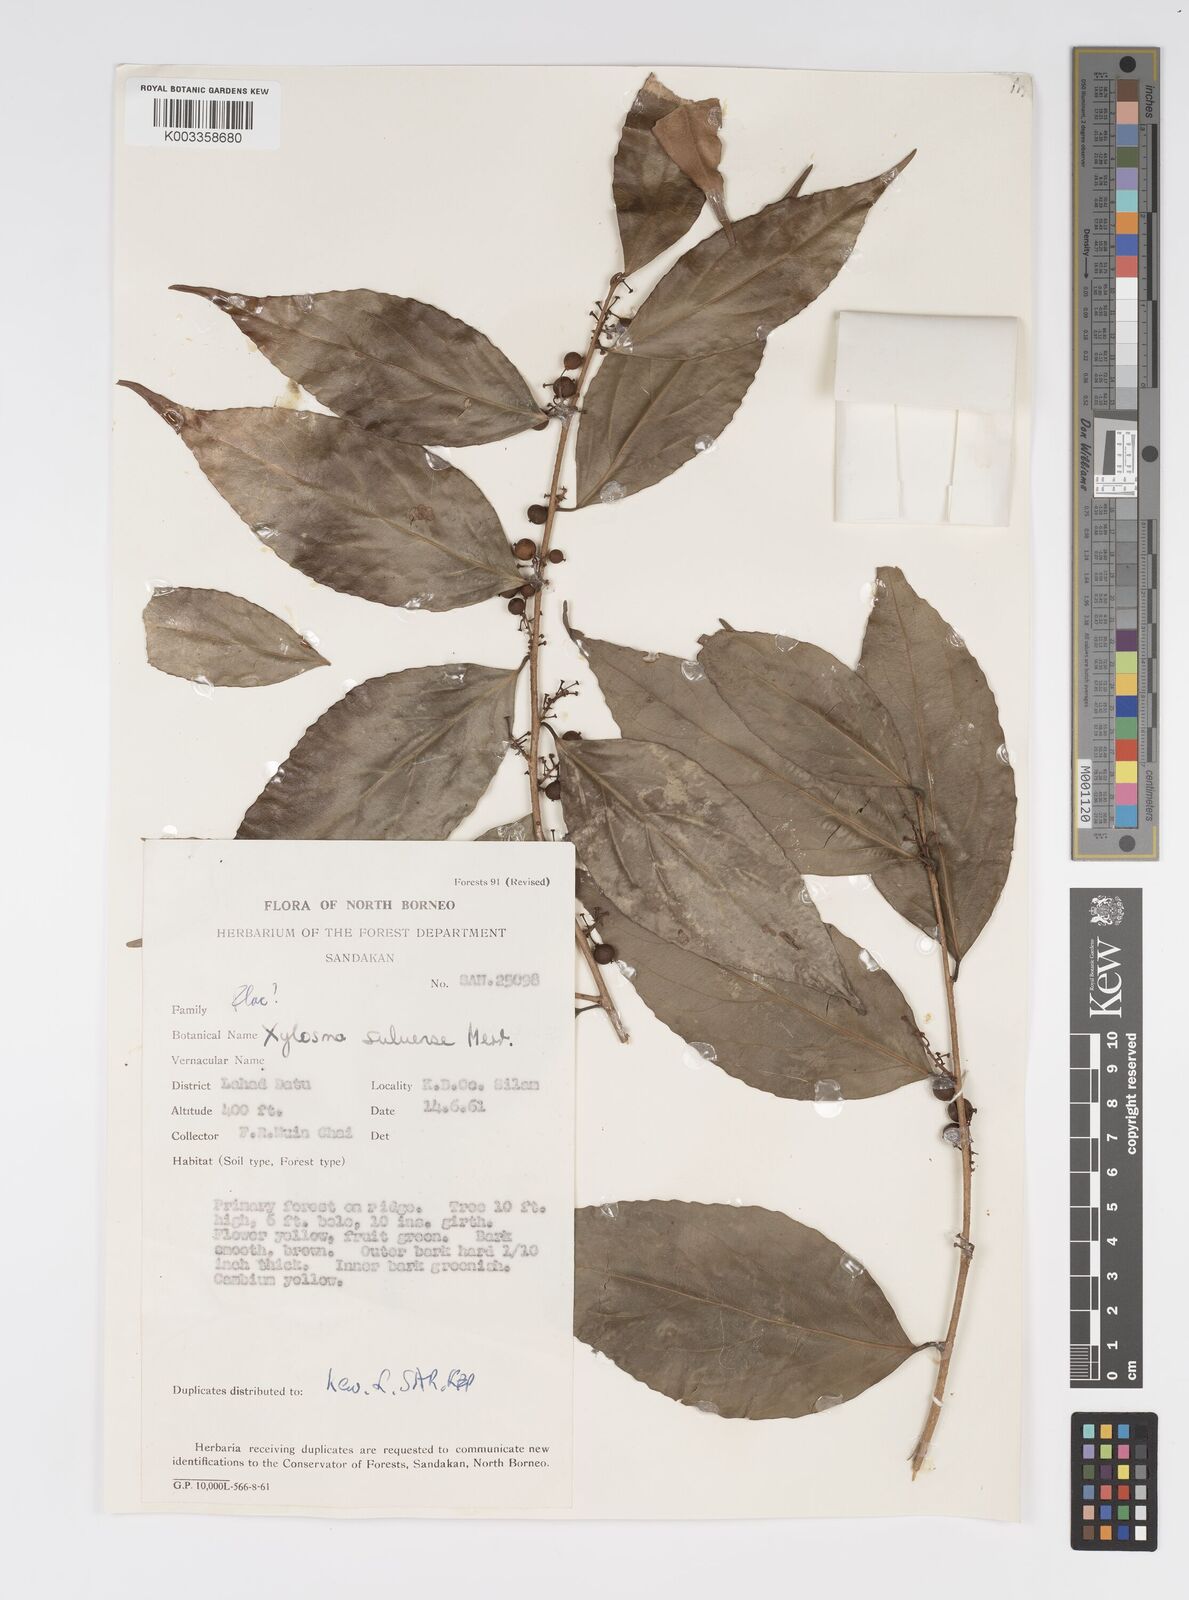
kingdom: Plantae
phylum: Tracheophyta
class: Magnoliopsida
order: Malpighiales
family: Salicaceae
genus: Xylosma
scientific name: Xylosma suluensis
